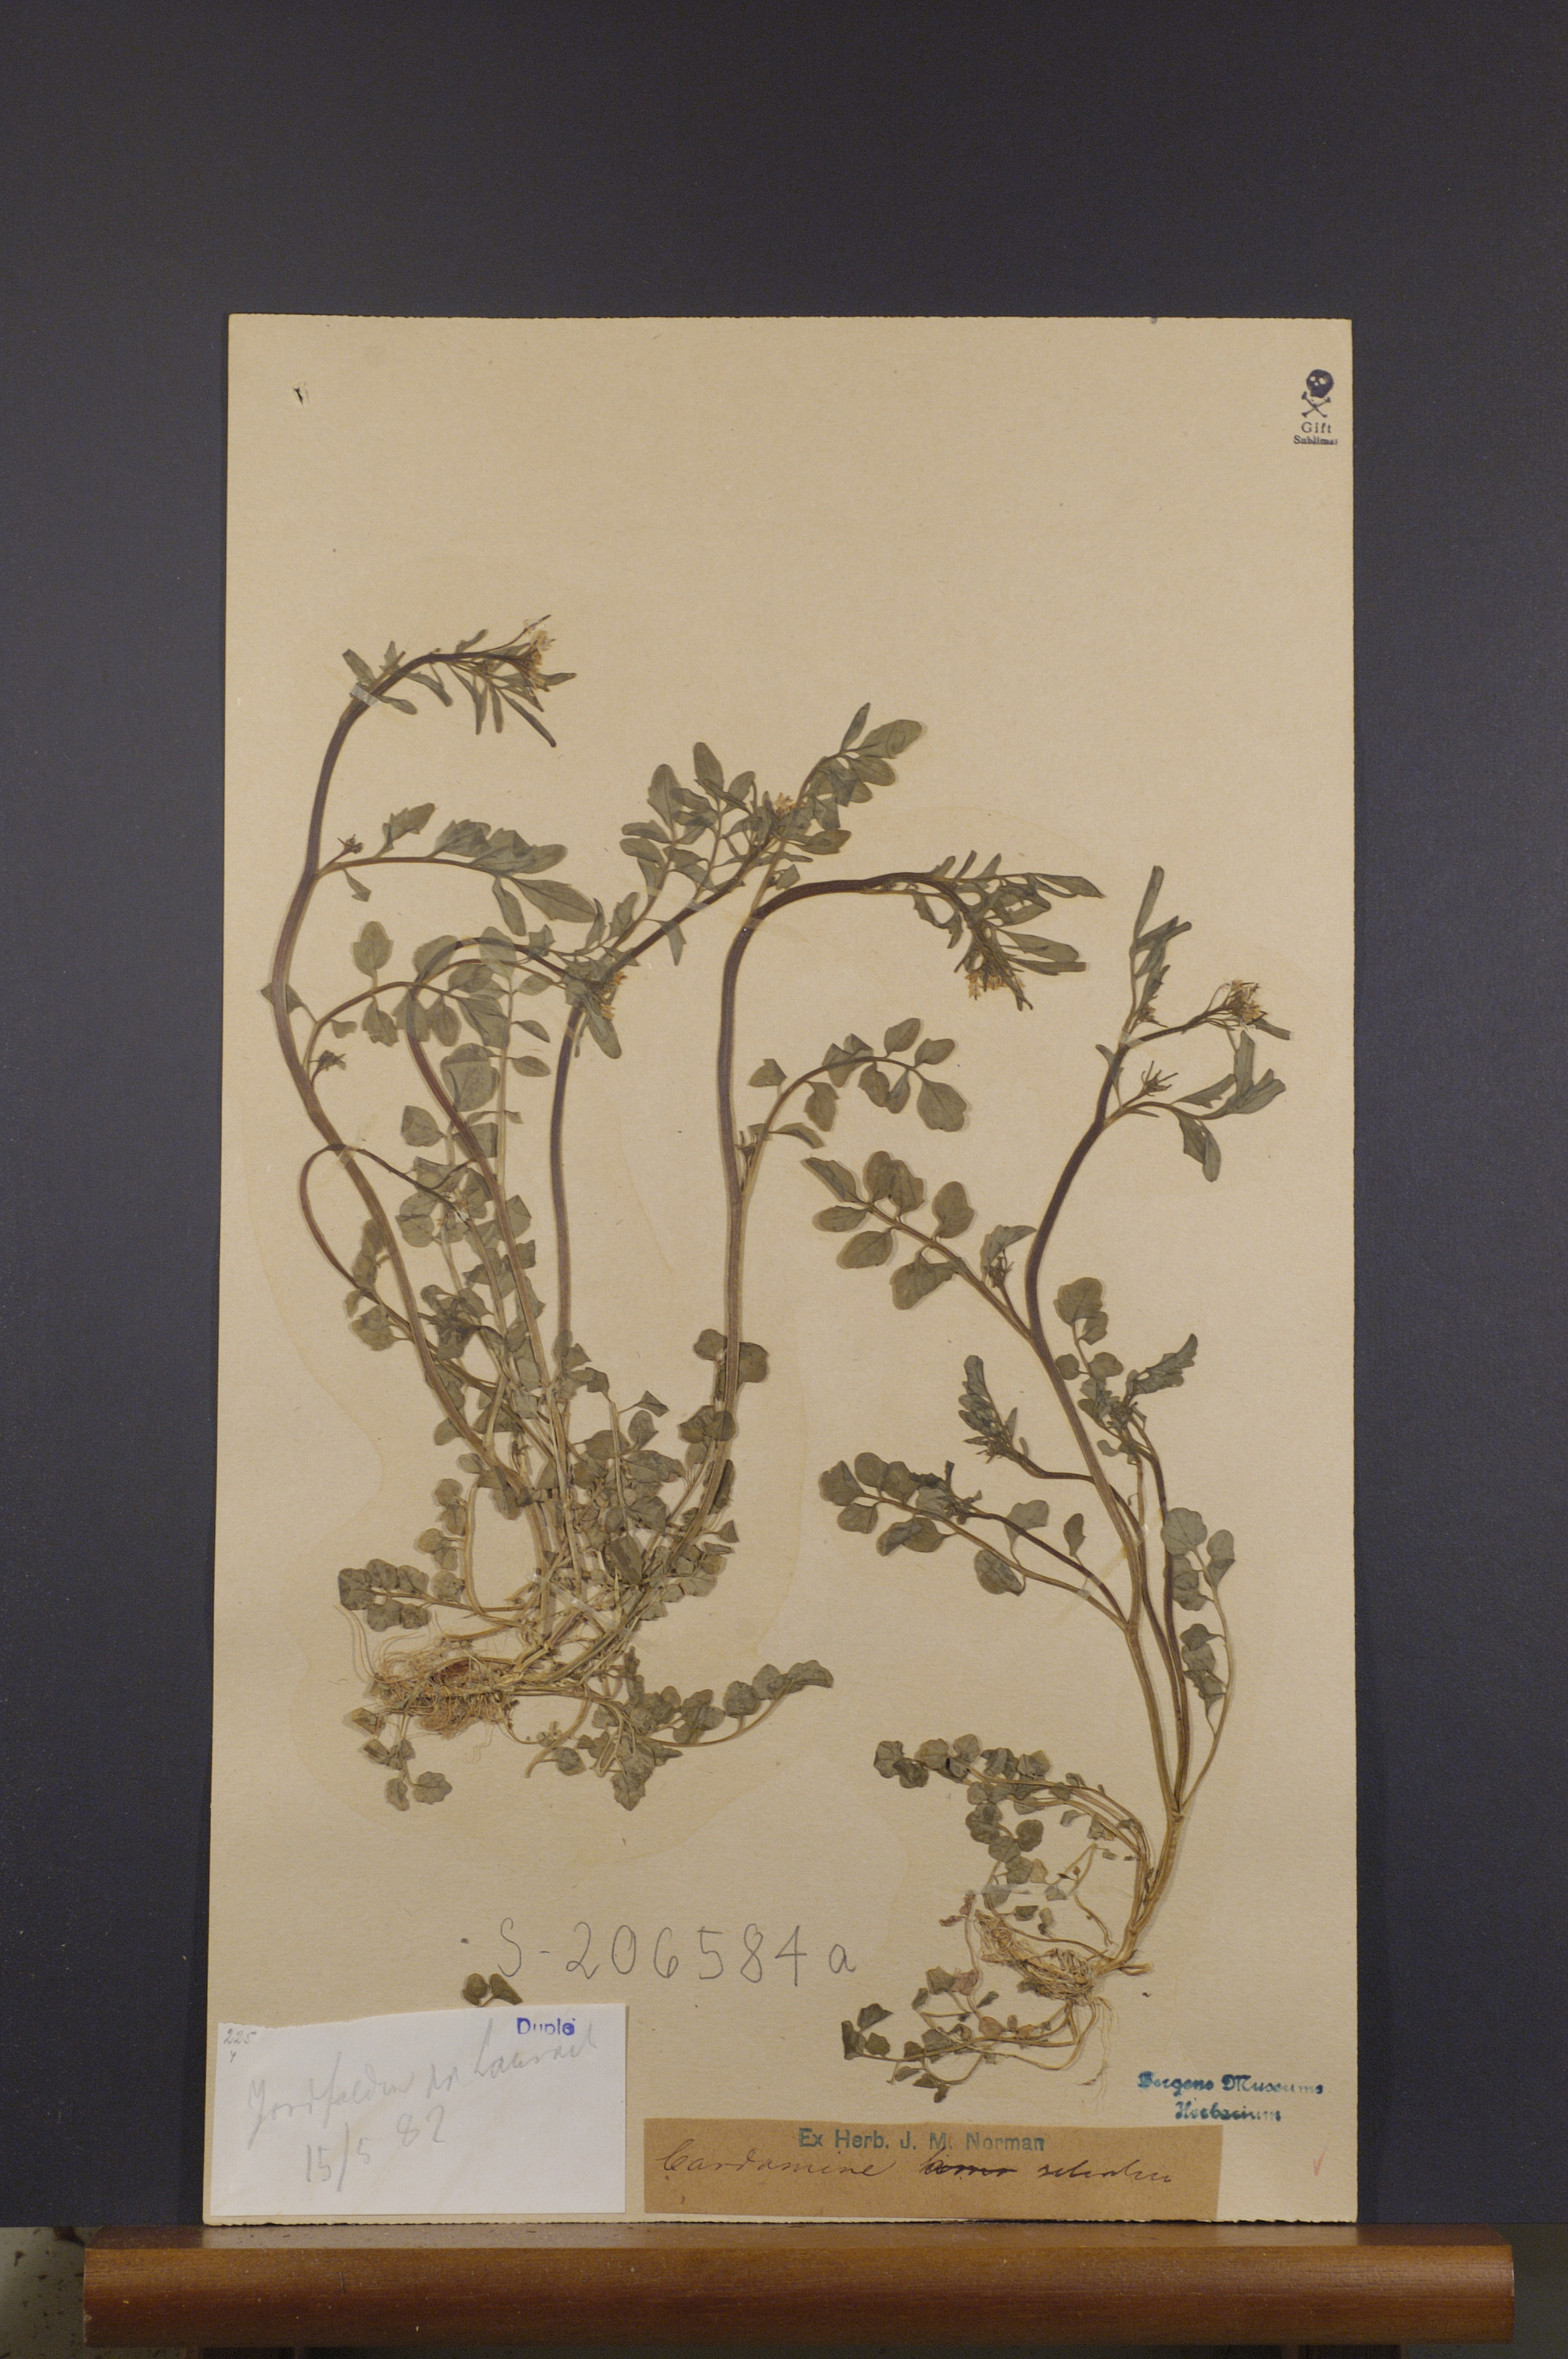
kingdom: Plantae
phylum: Tracheophyta
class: Magnoliopsida
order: Brassicales
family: Brassicaceae
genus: Cardamine
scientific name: Cardamine flexuosa
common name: Woodland bittercress
